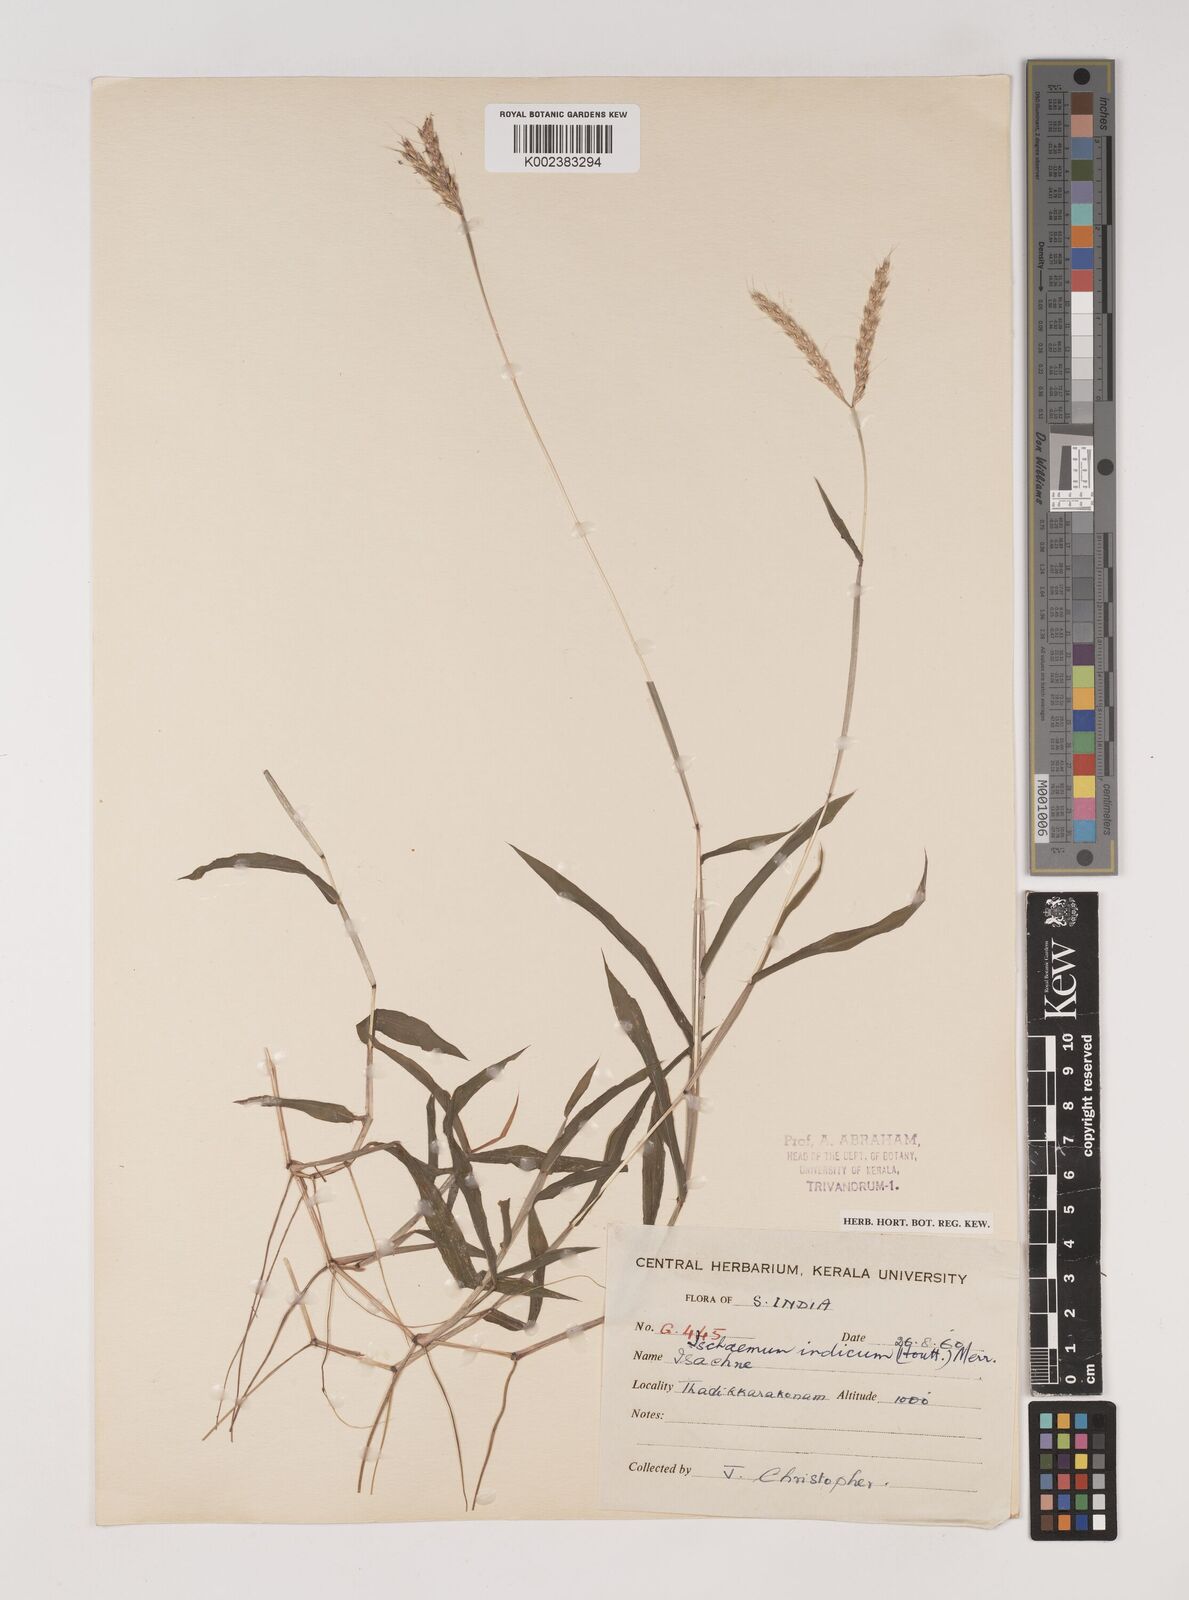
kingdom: Plantae
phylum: Tracheophyta
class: Liliopsida
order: Poales
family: Poaceae
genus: Polytrias
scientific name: Polytrias indica
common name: Indian murainagrass
